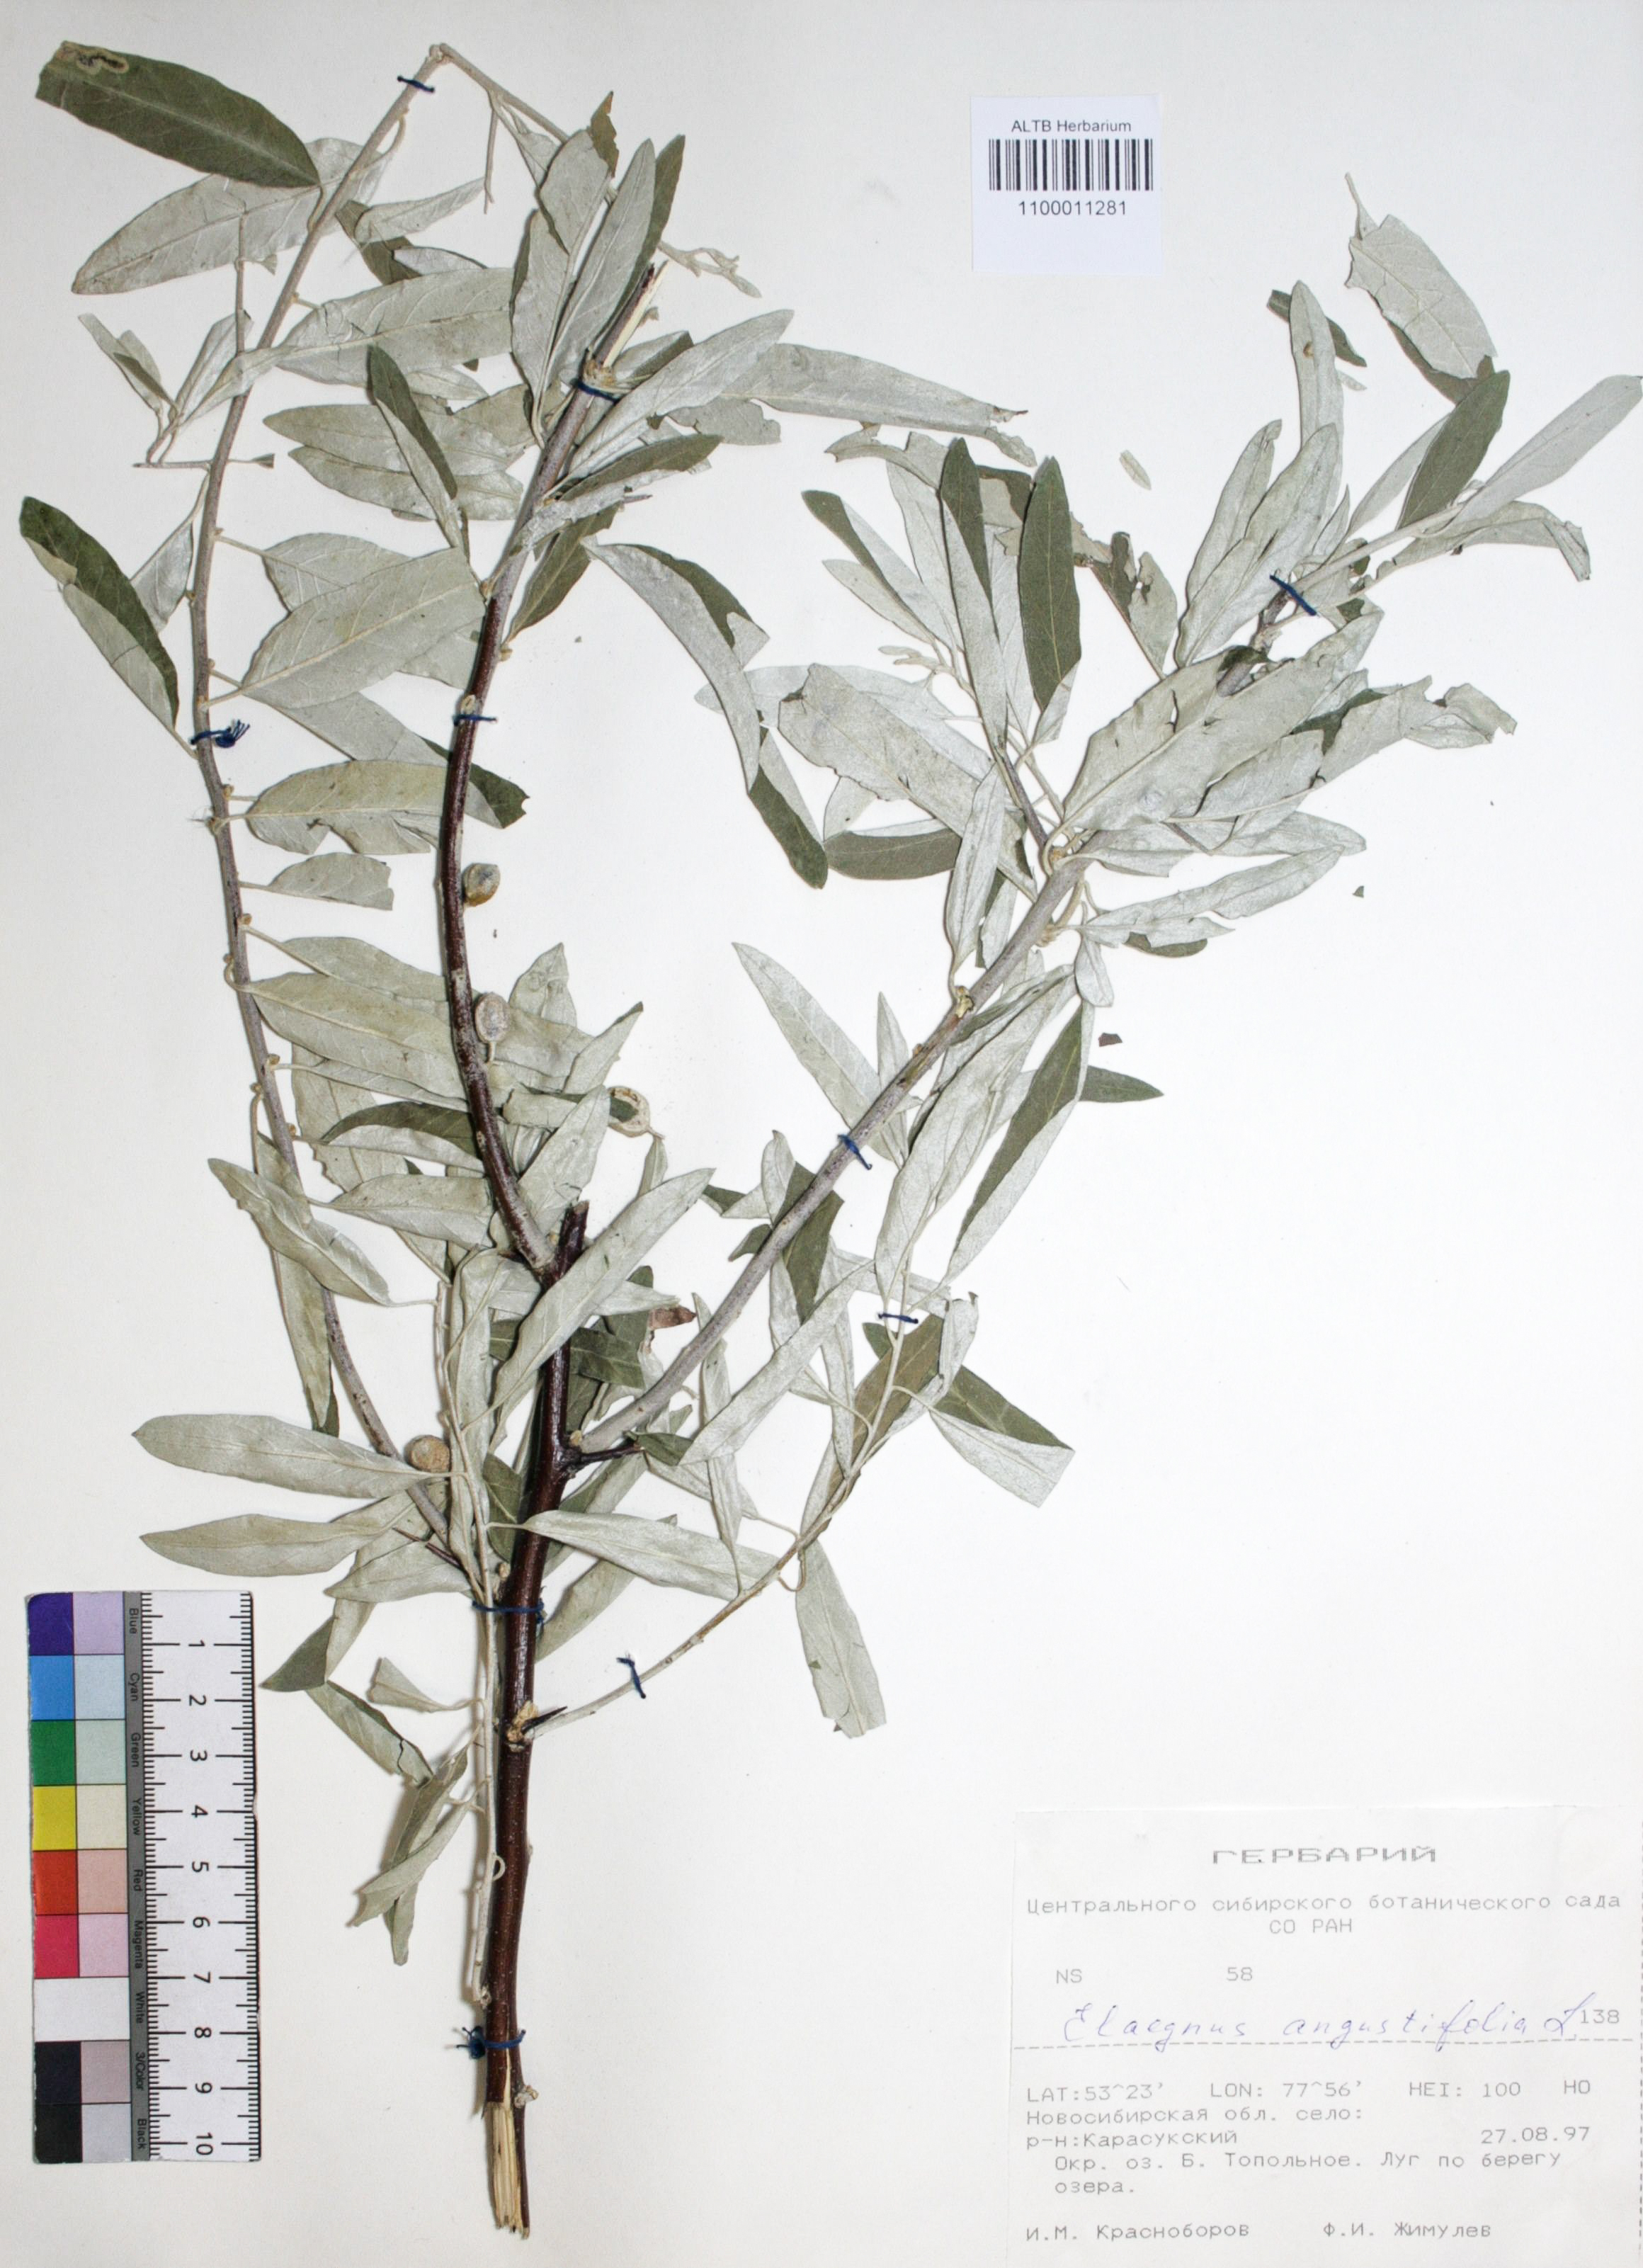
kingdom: Plantae
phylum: Tracheophyta
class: Magnoliopsida
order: Rosales
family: Elaeagnaceae
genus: Elaeagnus
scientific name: Elaeagnus angustifolia
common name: Russian olive
